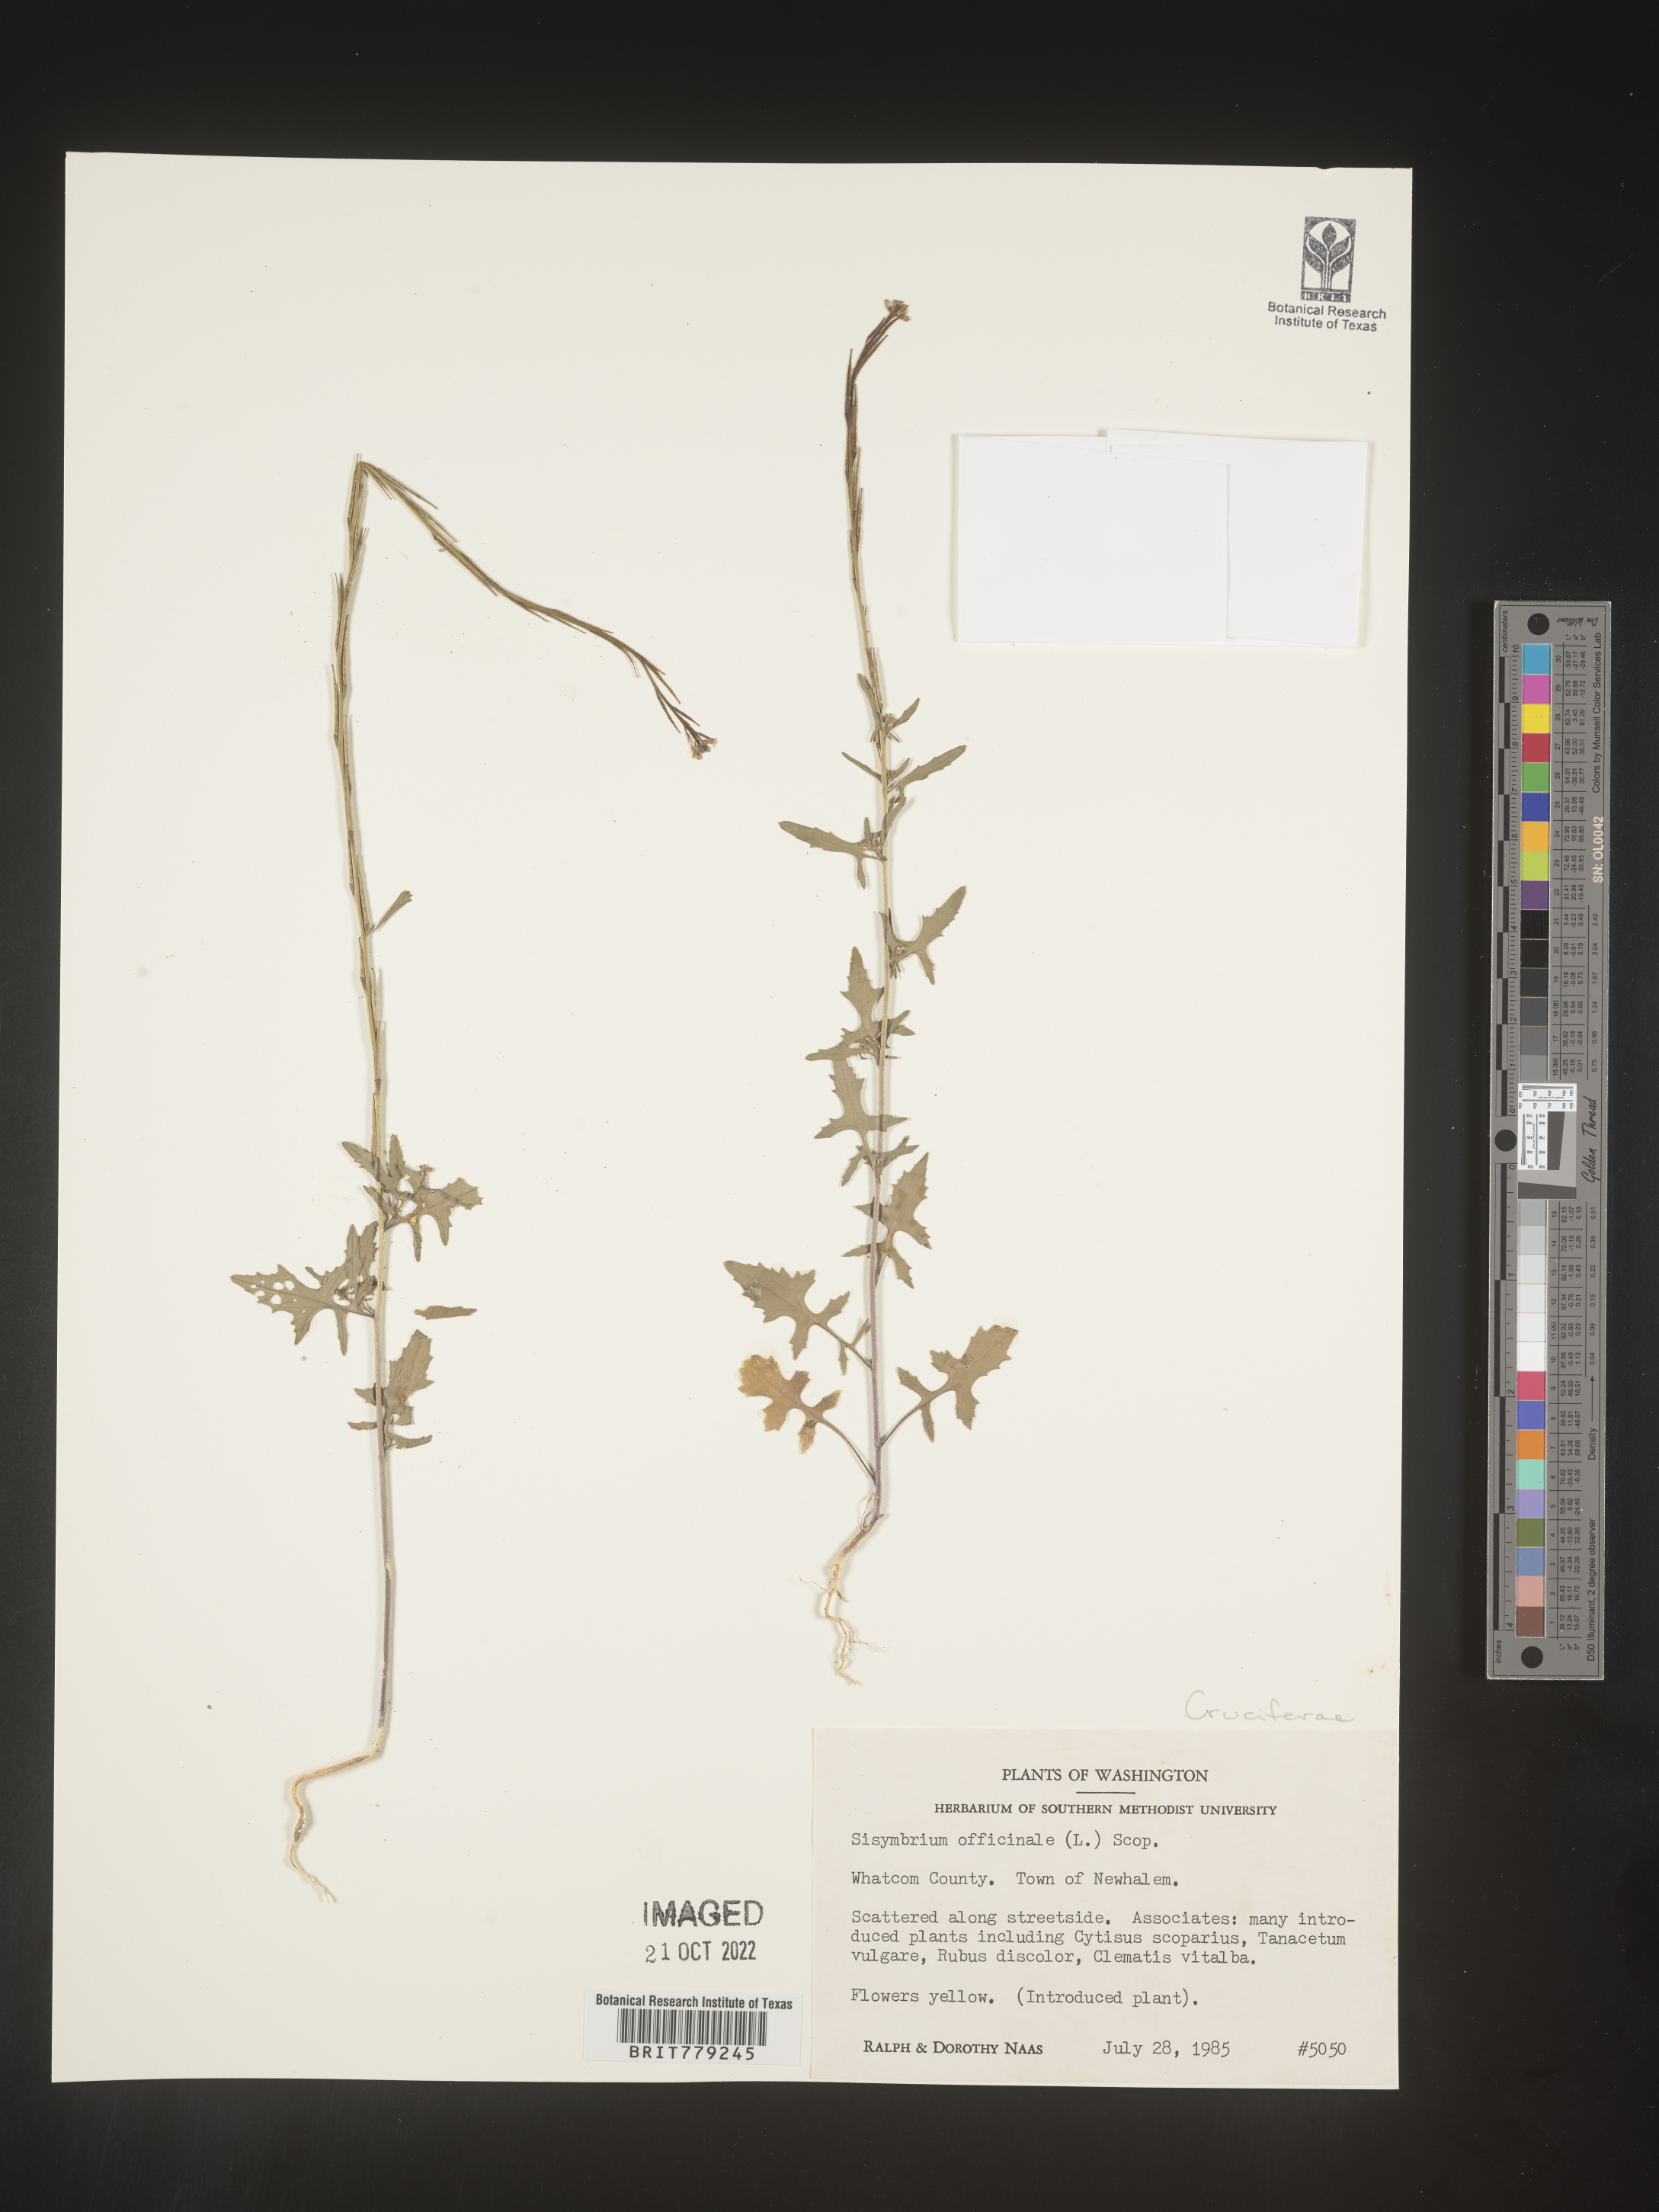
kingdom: Plantae
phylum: Tracheophyta
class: Magnoliopsida
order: Brassicales
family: Brassicaceae
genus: Sisymbrium
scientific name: Sisymbrium officinale
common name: Hedge mustard
